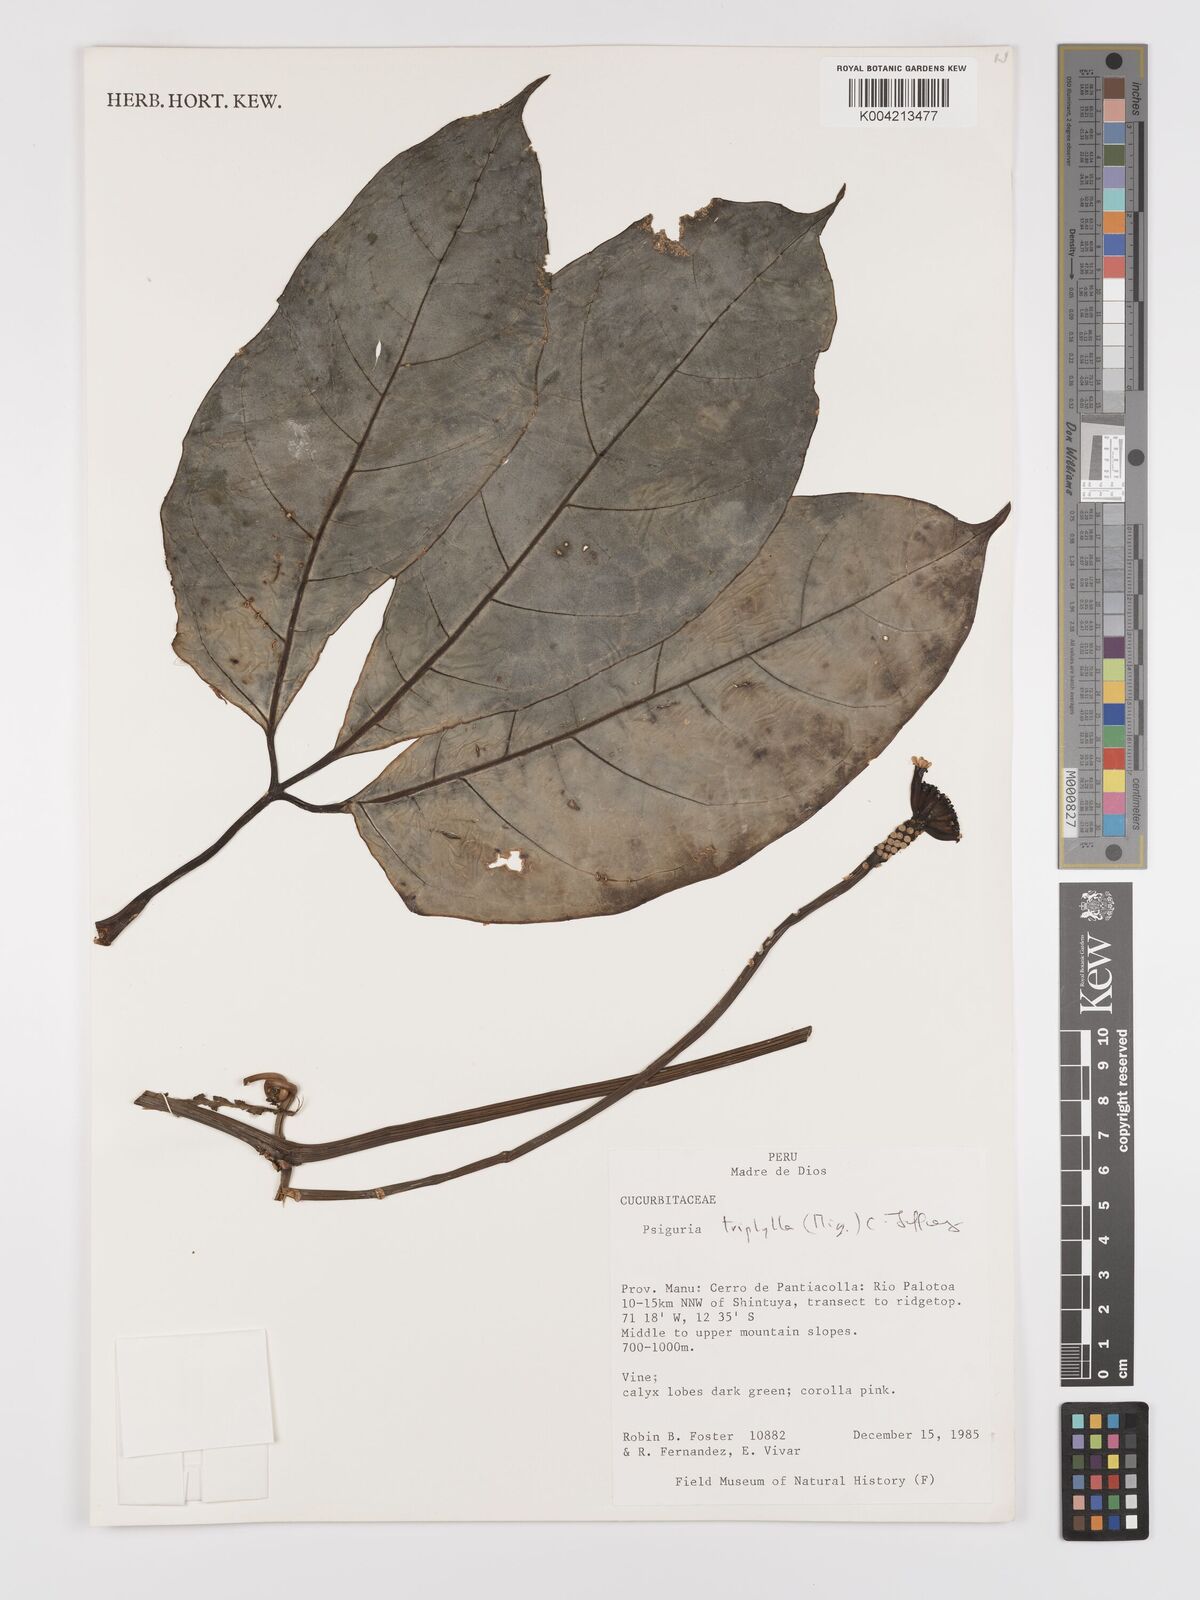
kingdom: Plantae
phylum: Tracheophyta
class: Magnoliopsida
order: Cucurbitales
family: Cucurbitaceae
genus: Psiguria
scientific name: Psiguria triphylla
